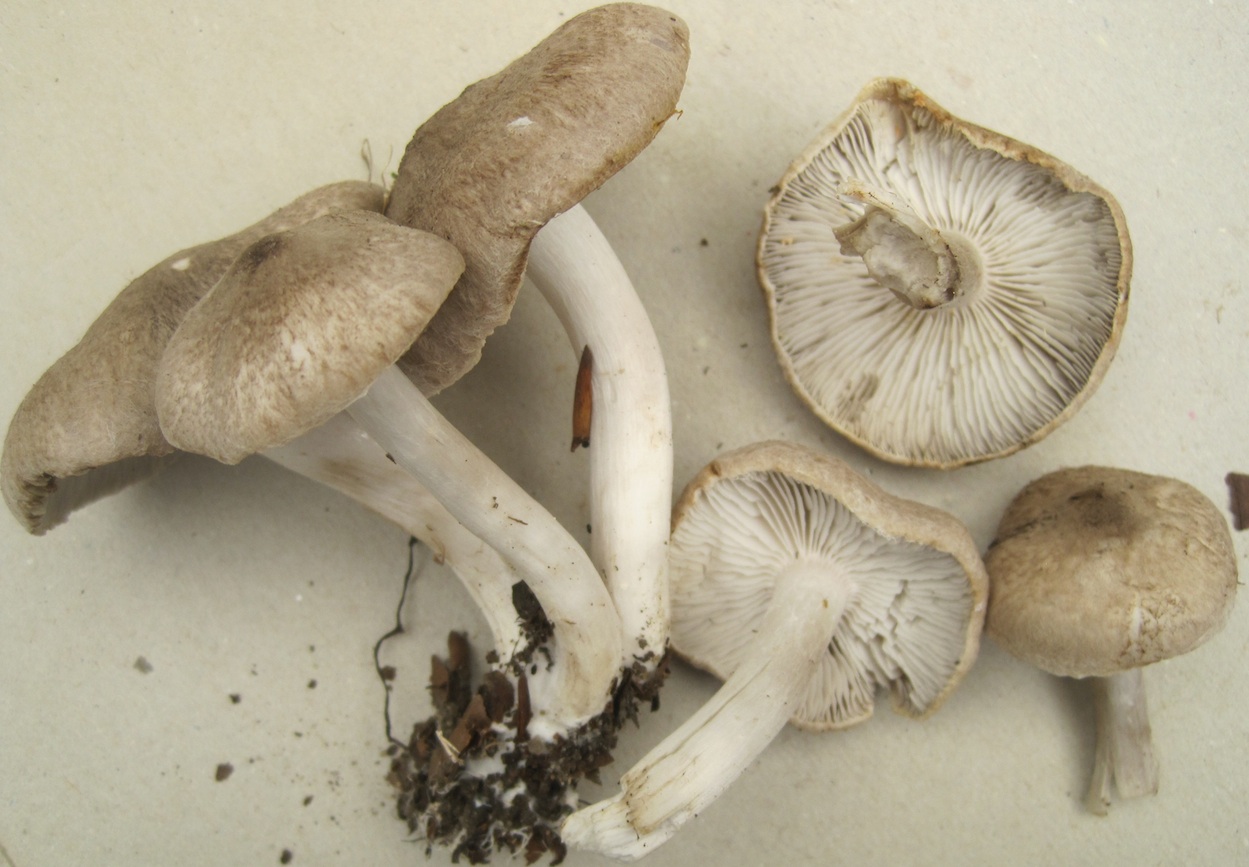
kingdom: Fungi
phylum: Basidiomycota
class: Agaricomycetes
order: Agaricales
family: Tricholomataceae
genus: Tricholoma
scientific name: Tricholoma scalpturatum
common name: gulplettet ridderhat
